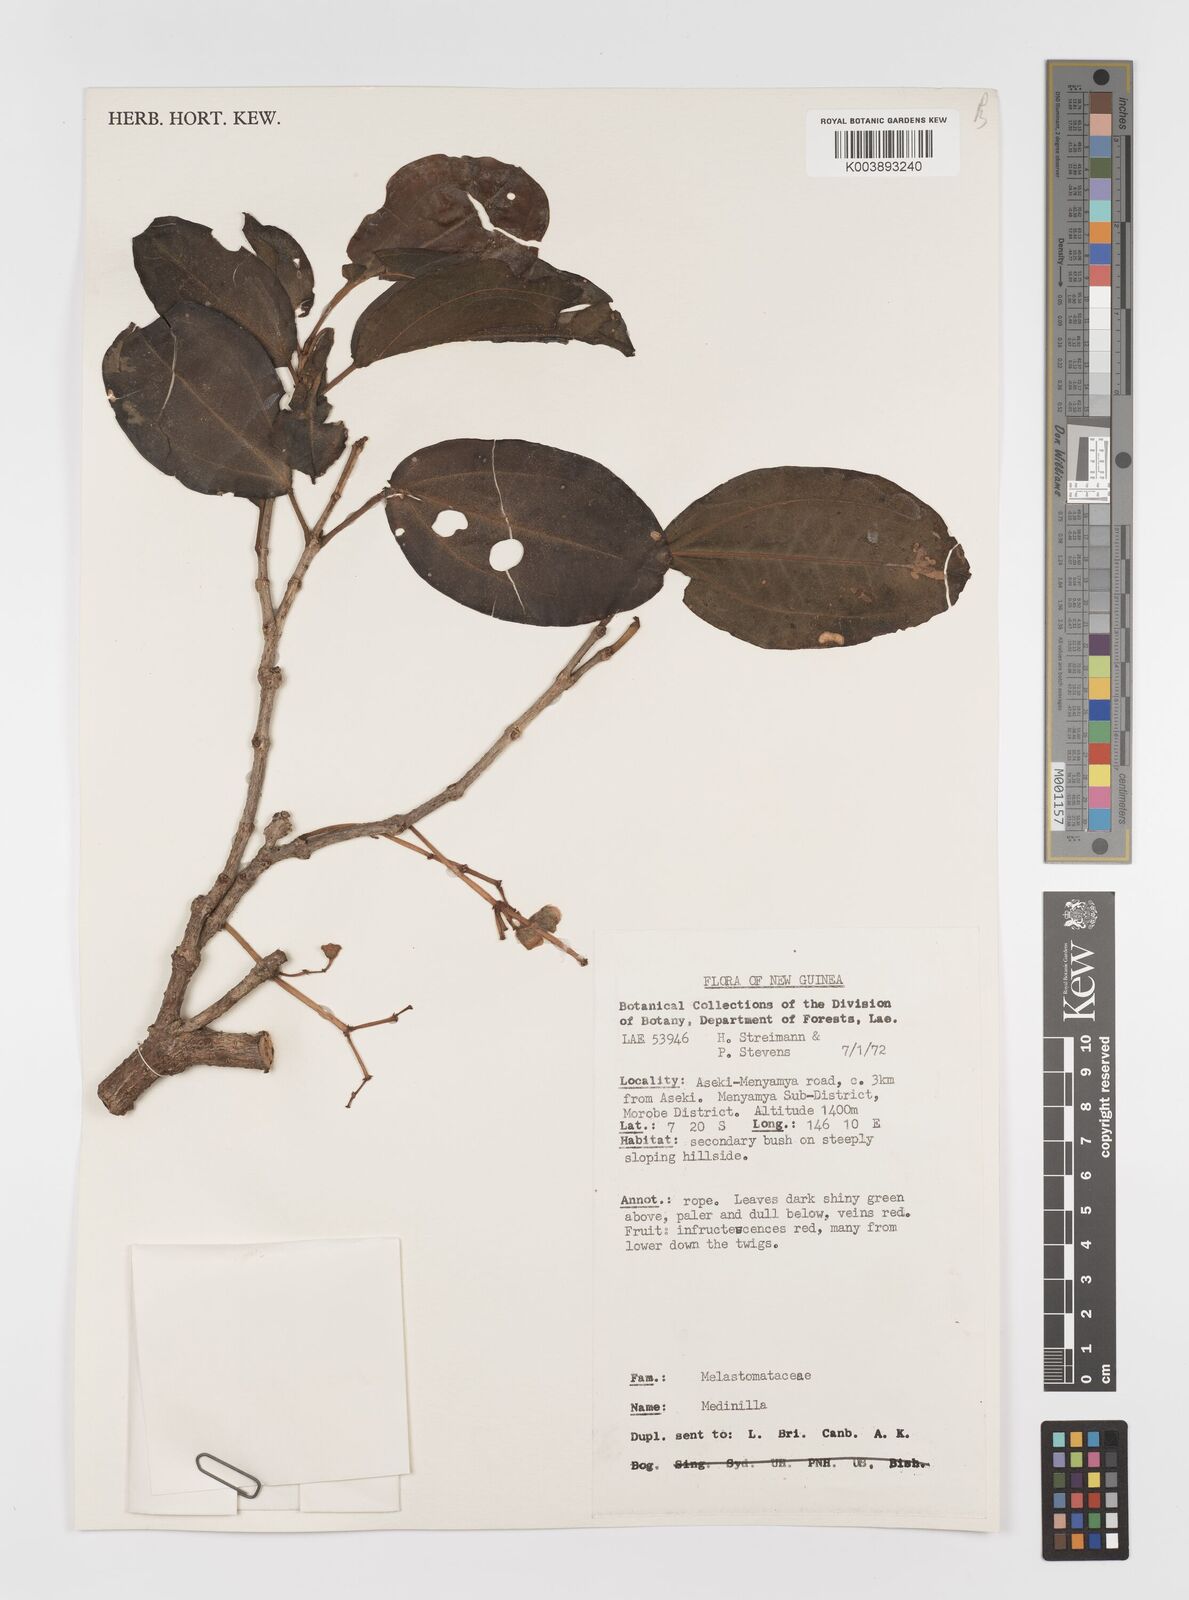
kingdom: Plantae
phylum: Tracheophyta
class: Magnoliopsida
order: Myrtales
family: Melastomataceae
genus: Medinilla
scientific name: Medinilla
